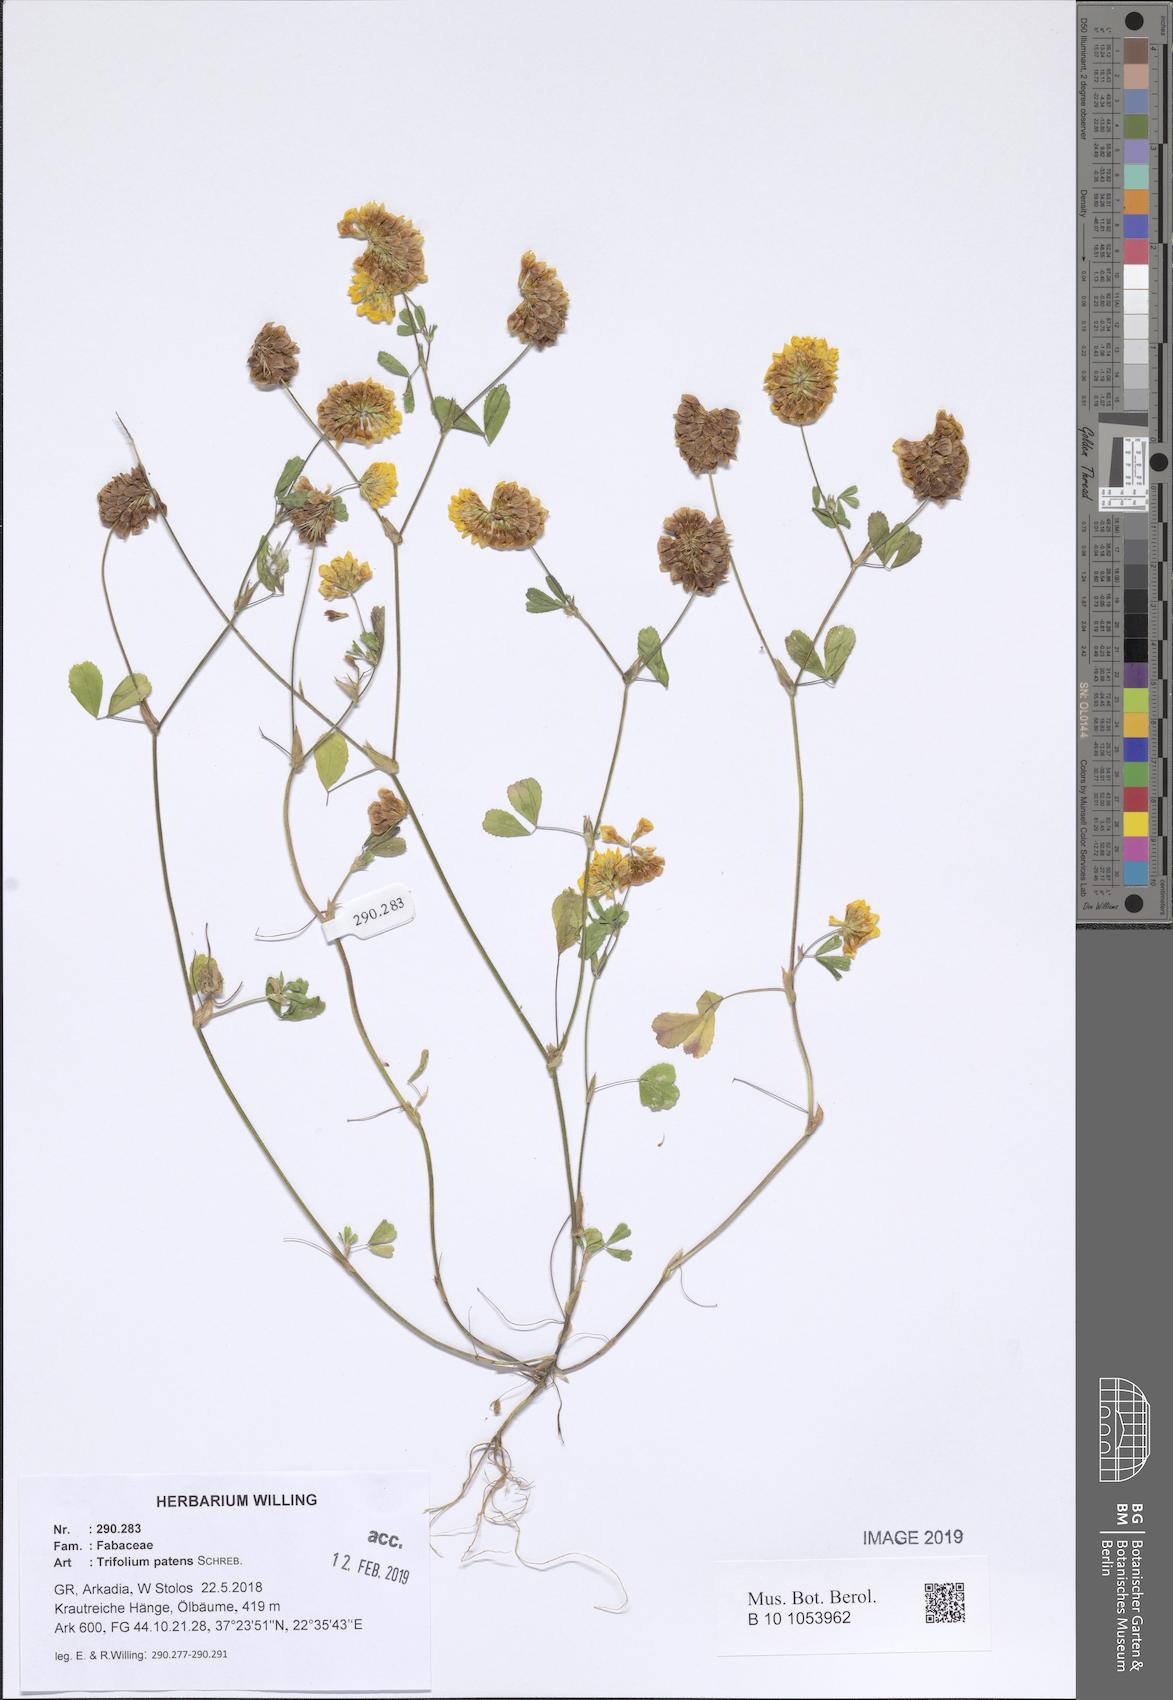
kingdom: Plantae
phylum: Tracheophyta
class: Magnoliopsida
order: Fabales
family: Fabaceae
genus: Trifolium
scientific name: Trifolium patens
